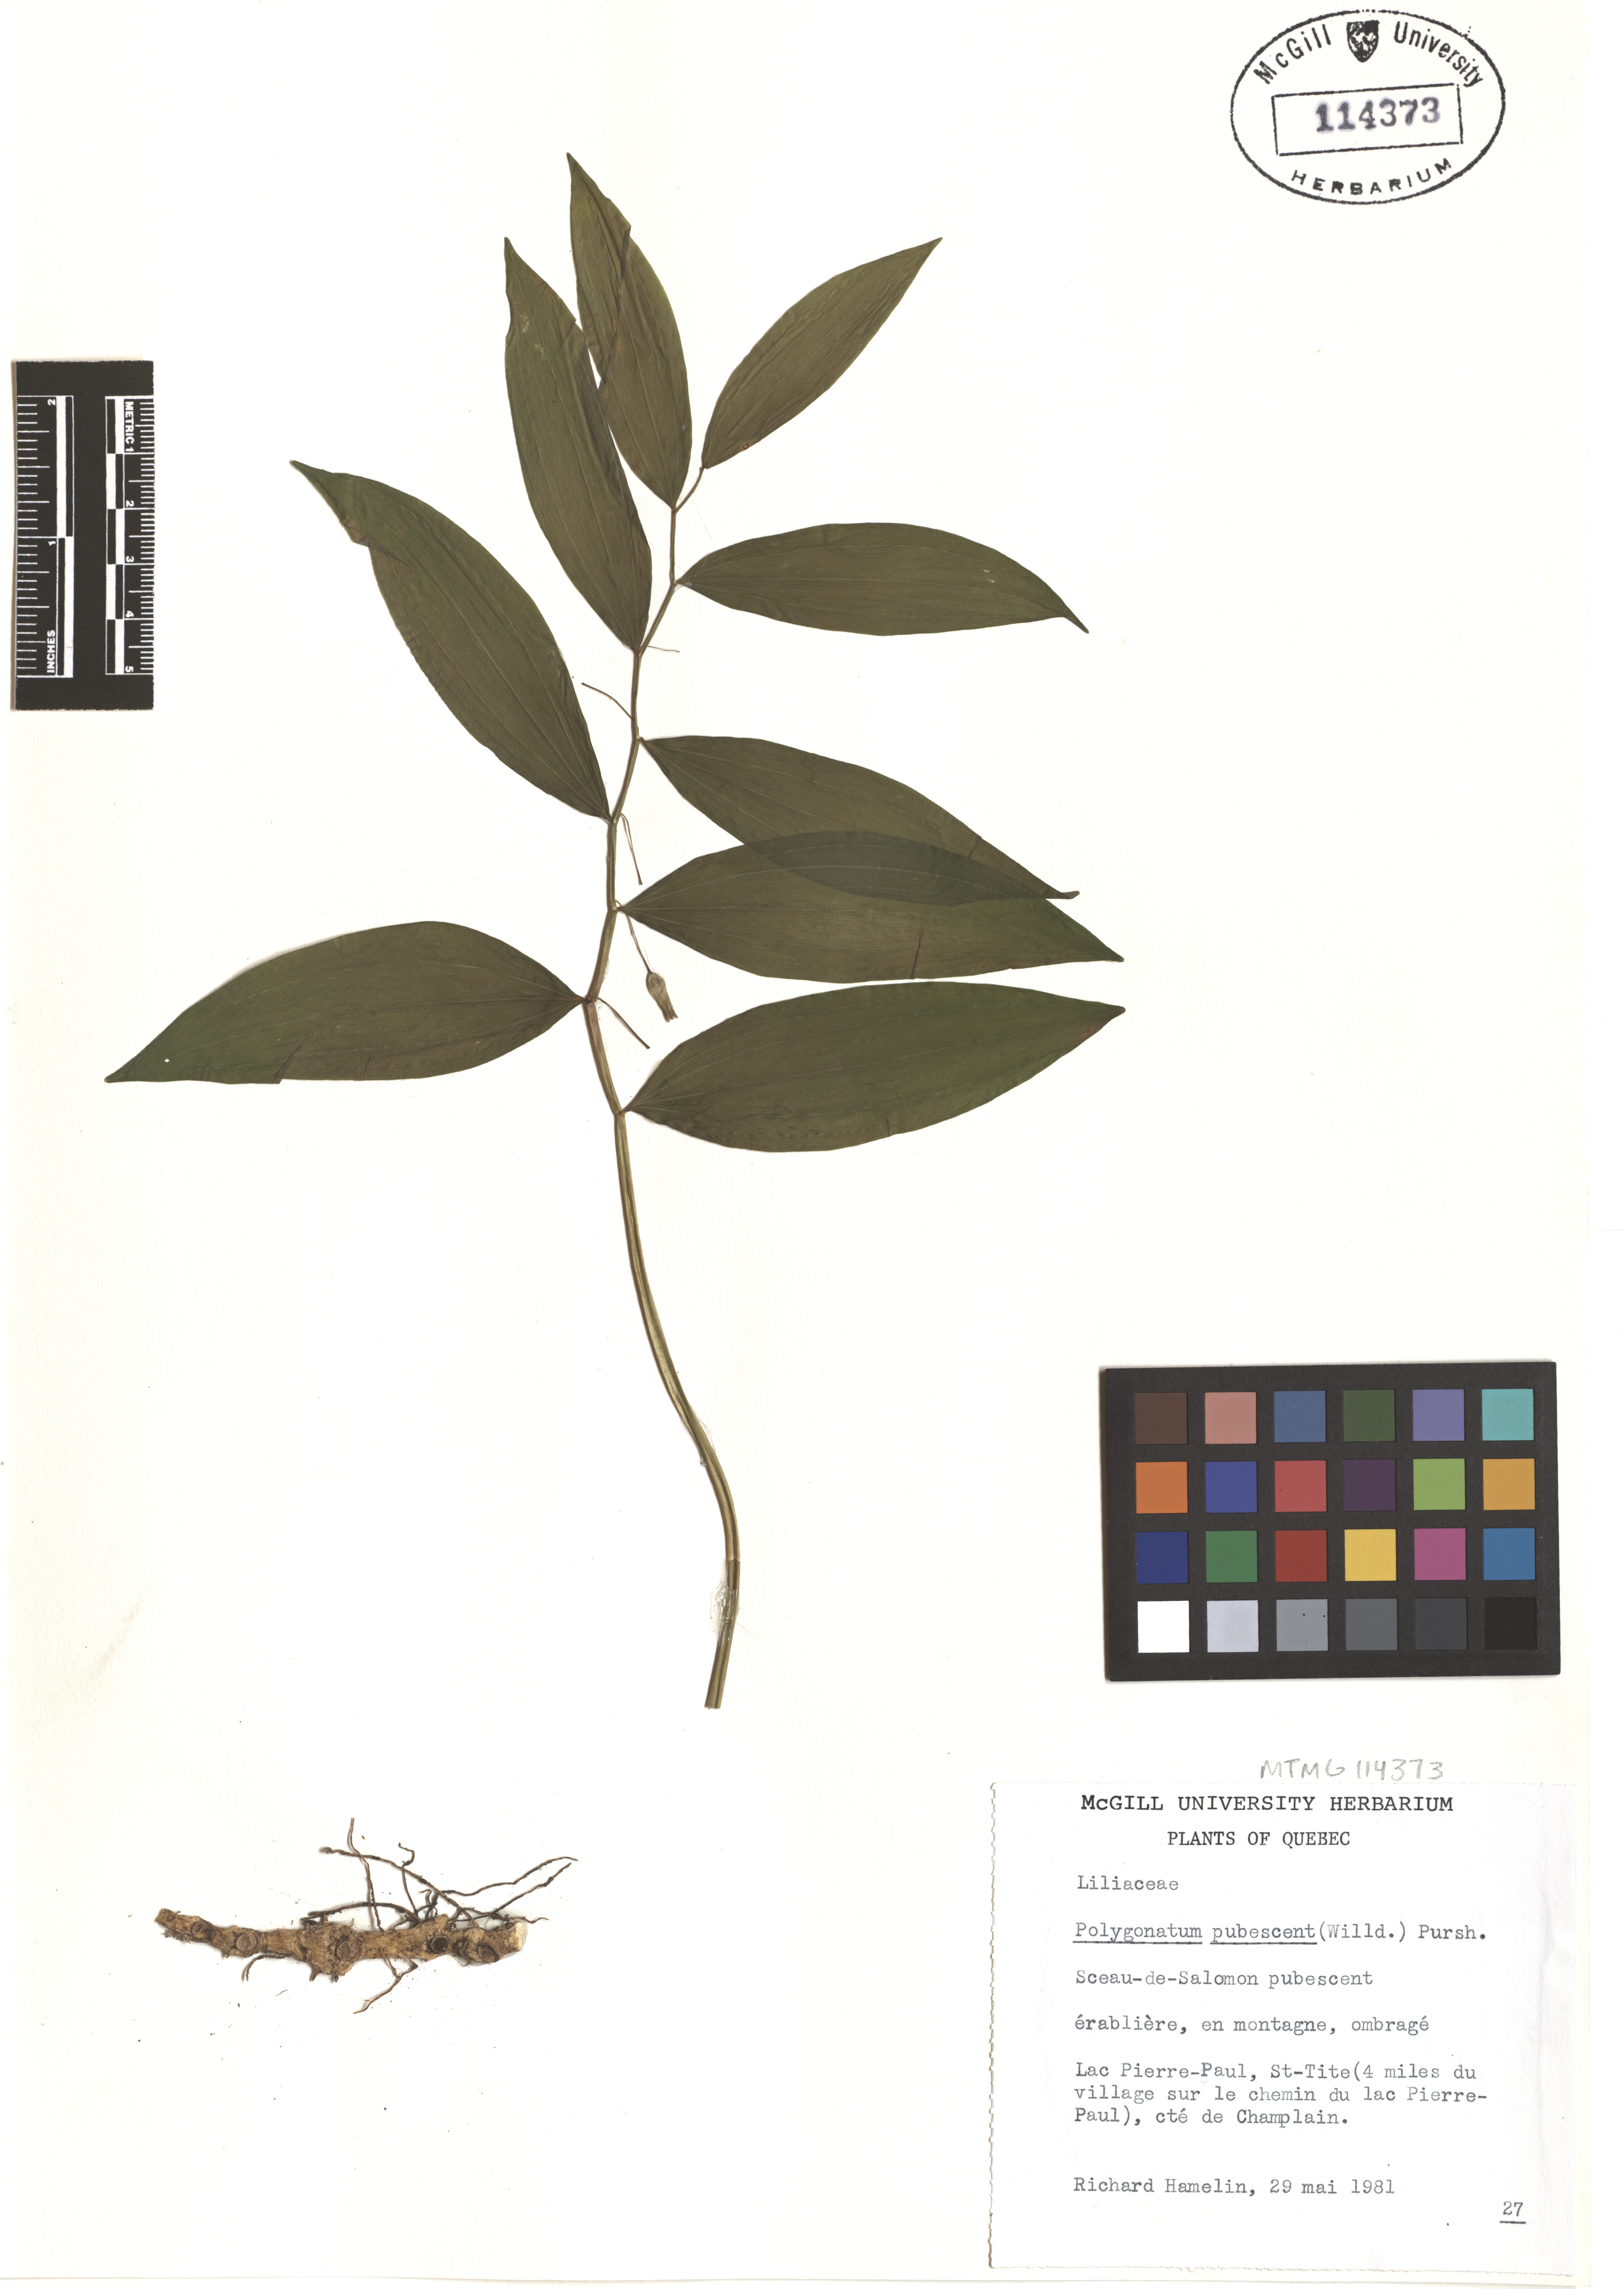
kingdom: Plantae
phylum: Tracheophyta
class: Liliopsida
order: Asparagales
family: Asparagaceae
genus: Polygonatum
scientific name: Polygonatum pubescens
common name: Downy solomon's seal
